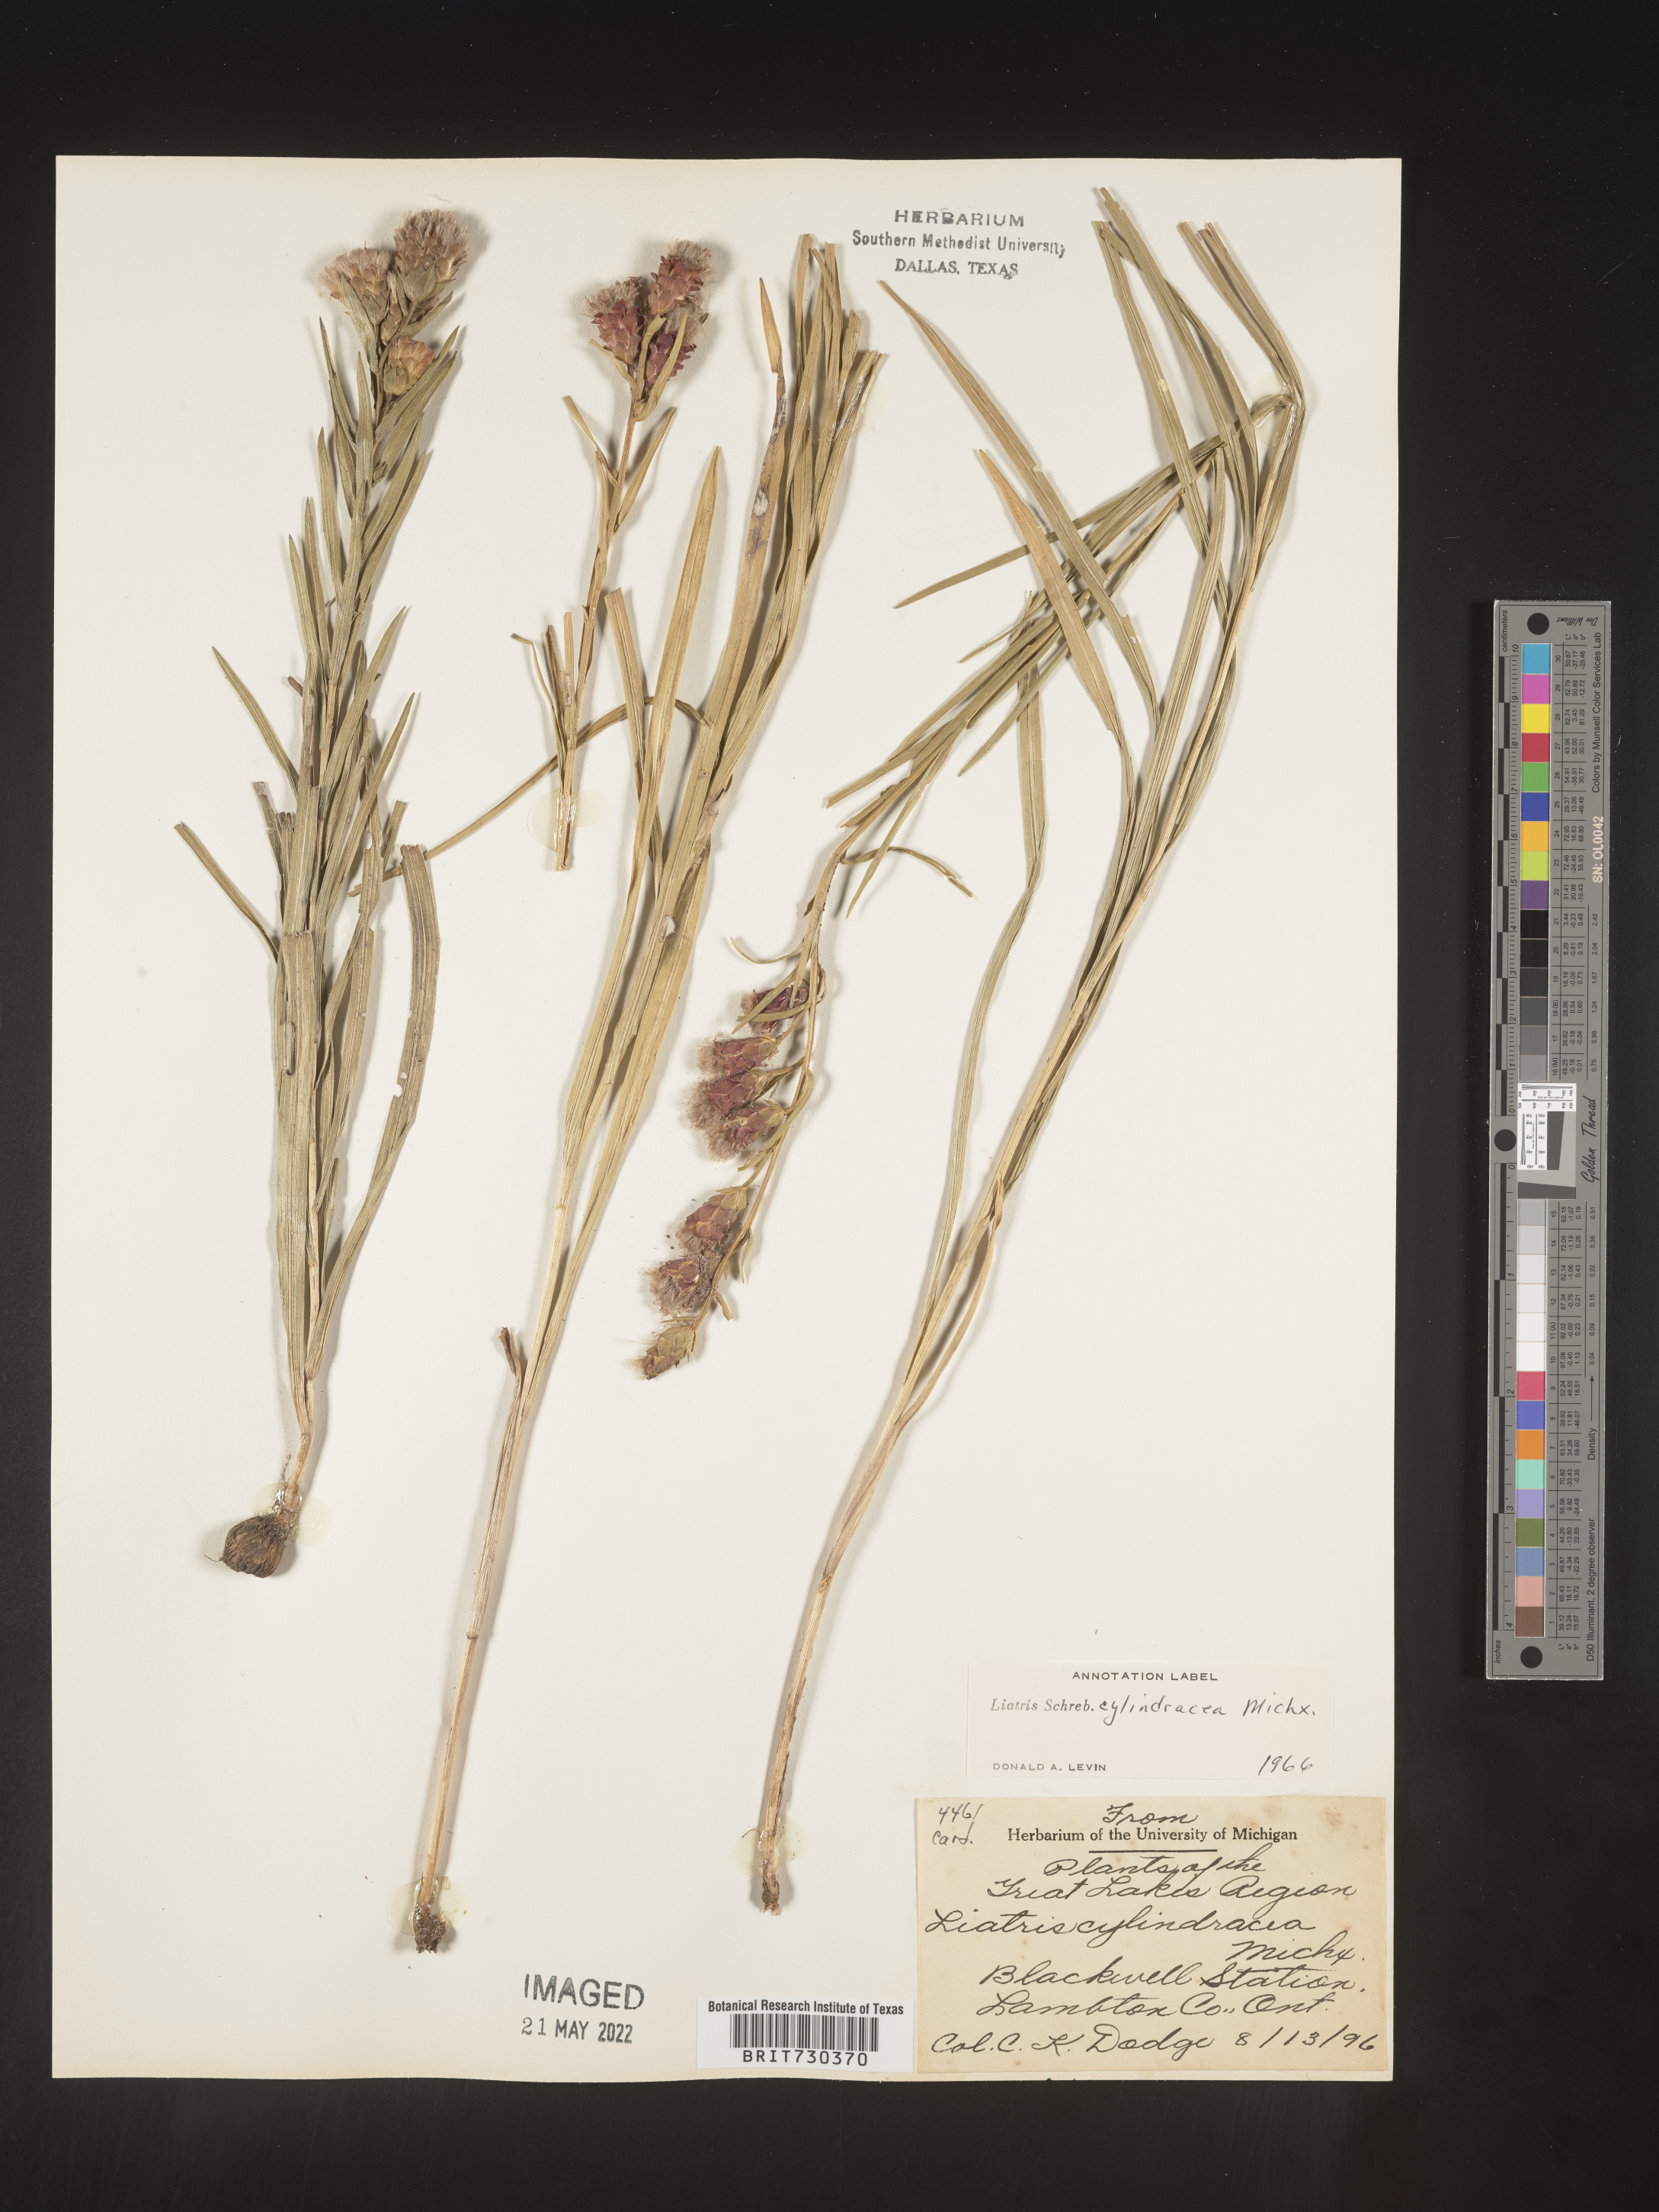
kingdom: Plantae
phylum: Tracheophyta
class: Magnoliopsida
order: Asterales
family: Asteraceae
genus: Liatris
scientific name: Liatris cylindracea
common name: Few-head blazingstar
